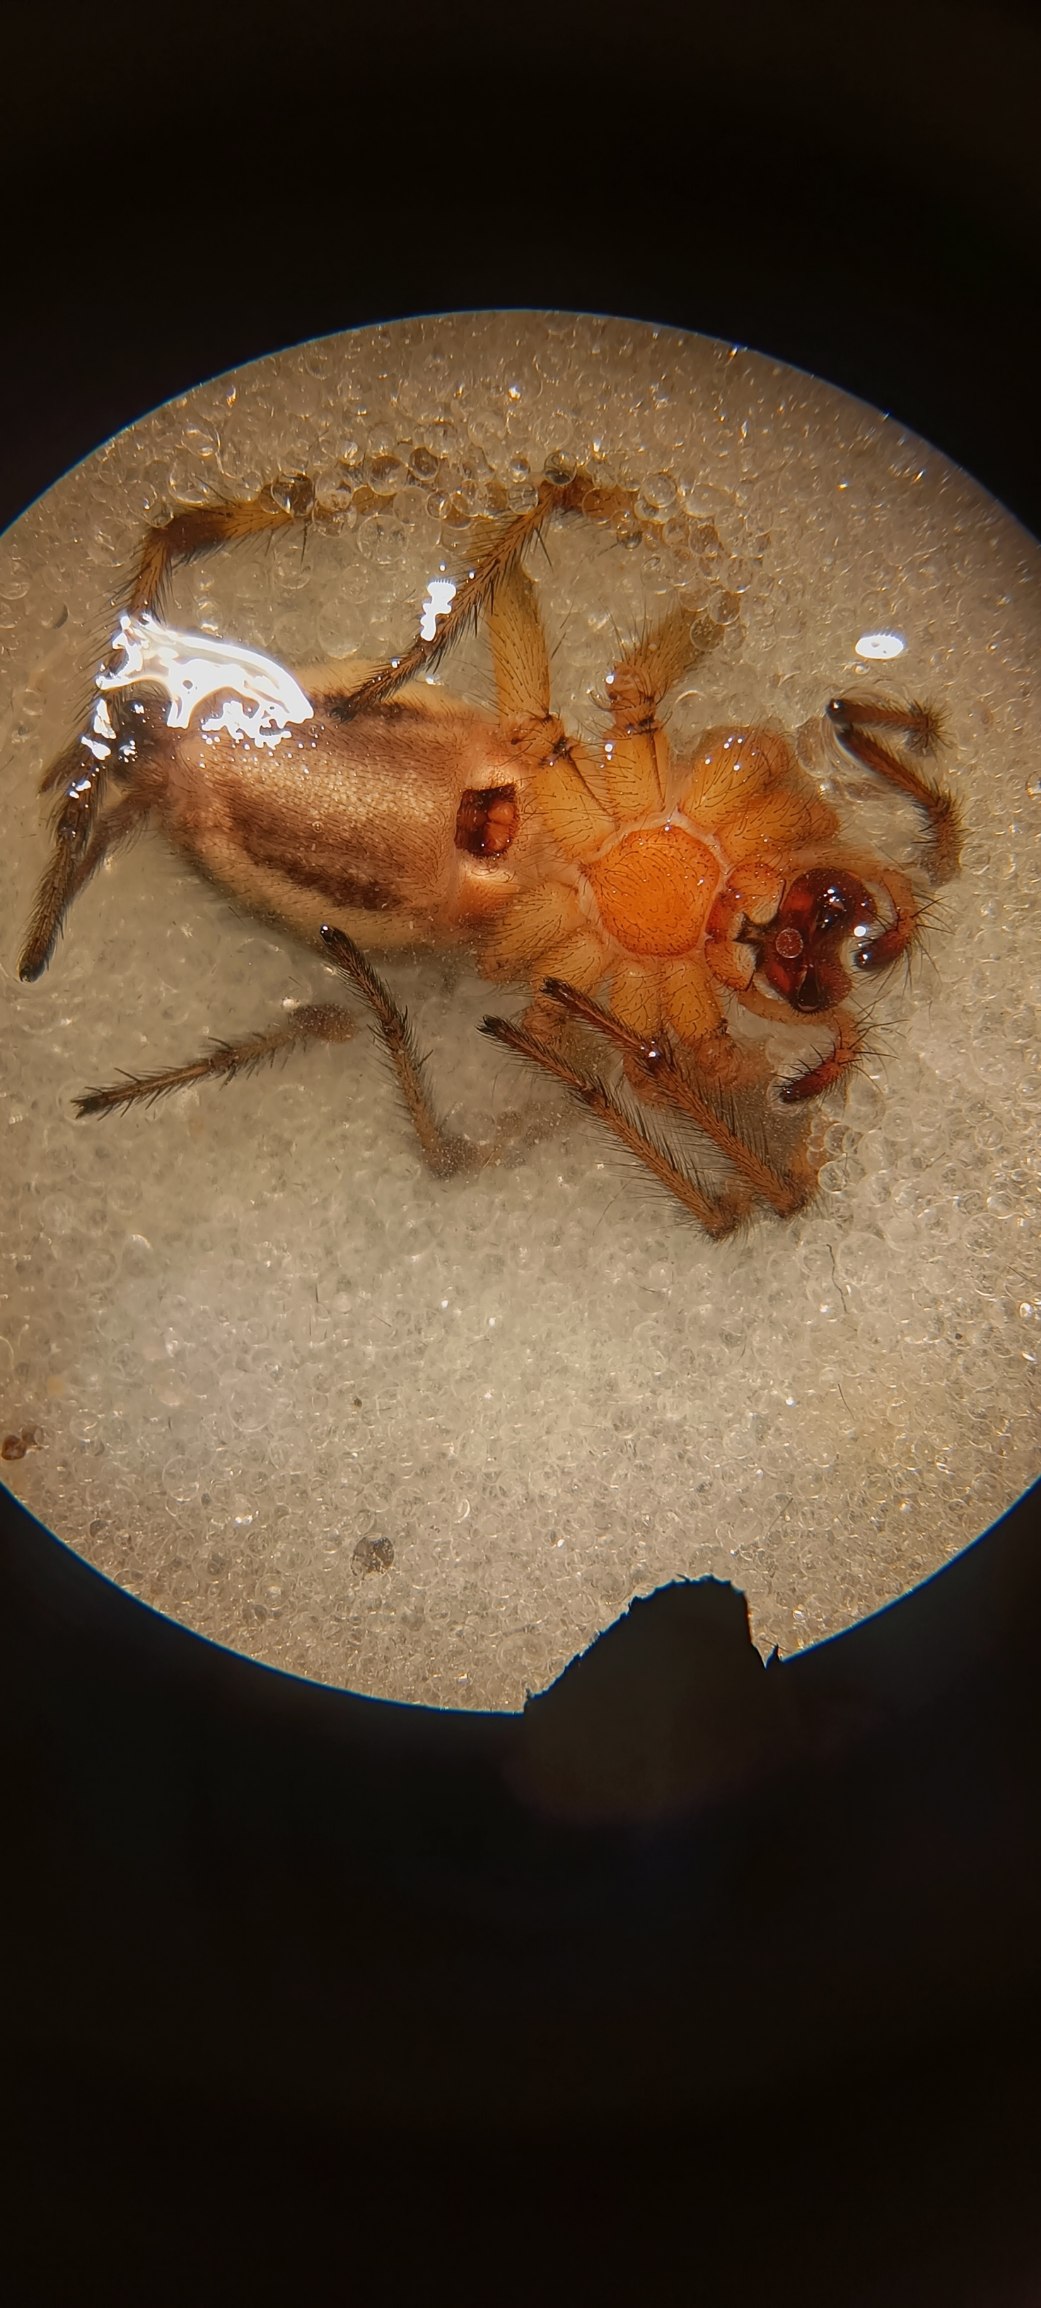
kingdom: Animalia
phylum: Arthropoda
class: Arachnida
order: Araneae
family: Agelenidae
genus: Agelena
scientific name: Agelena labyrinthica
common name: Labyrintedderkop
